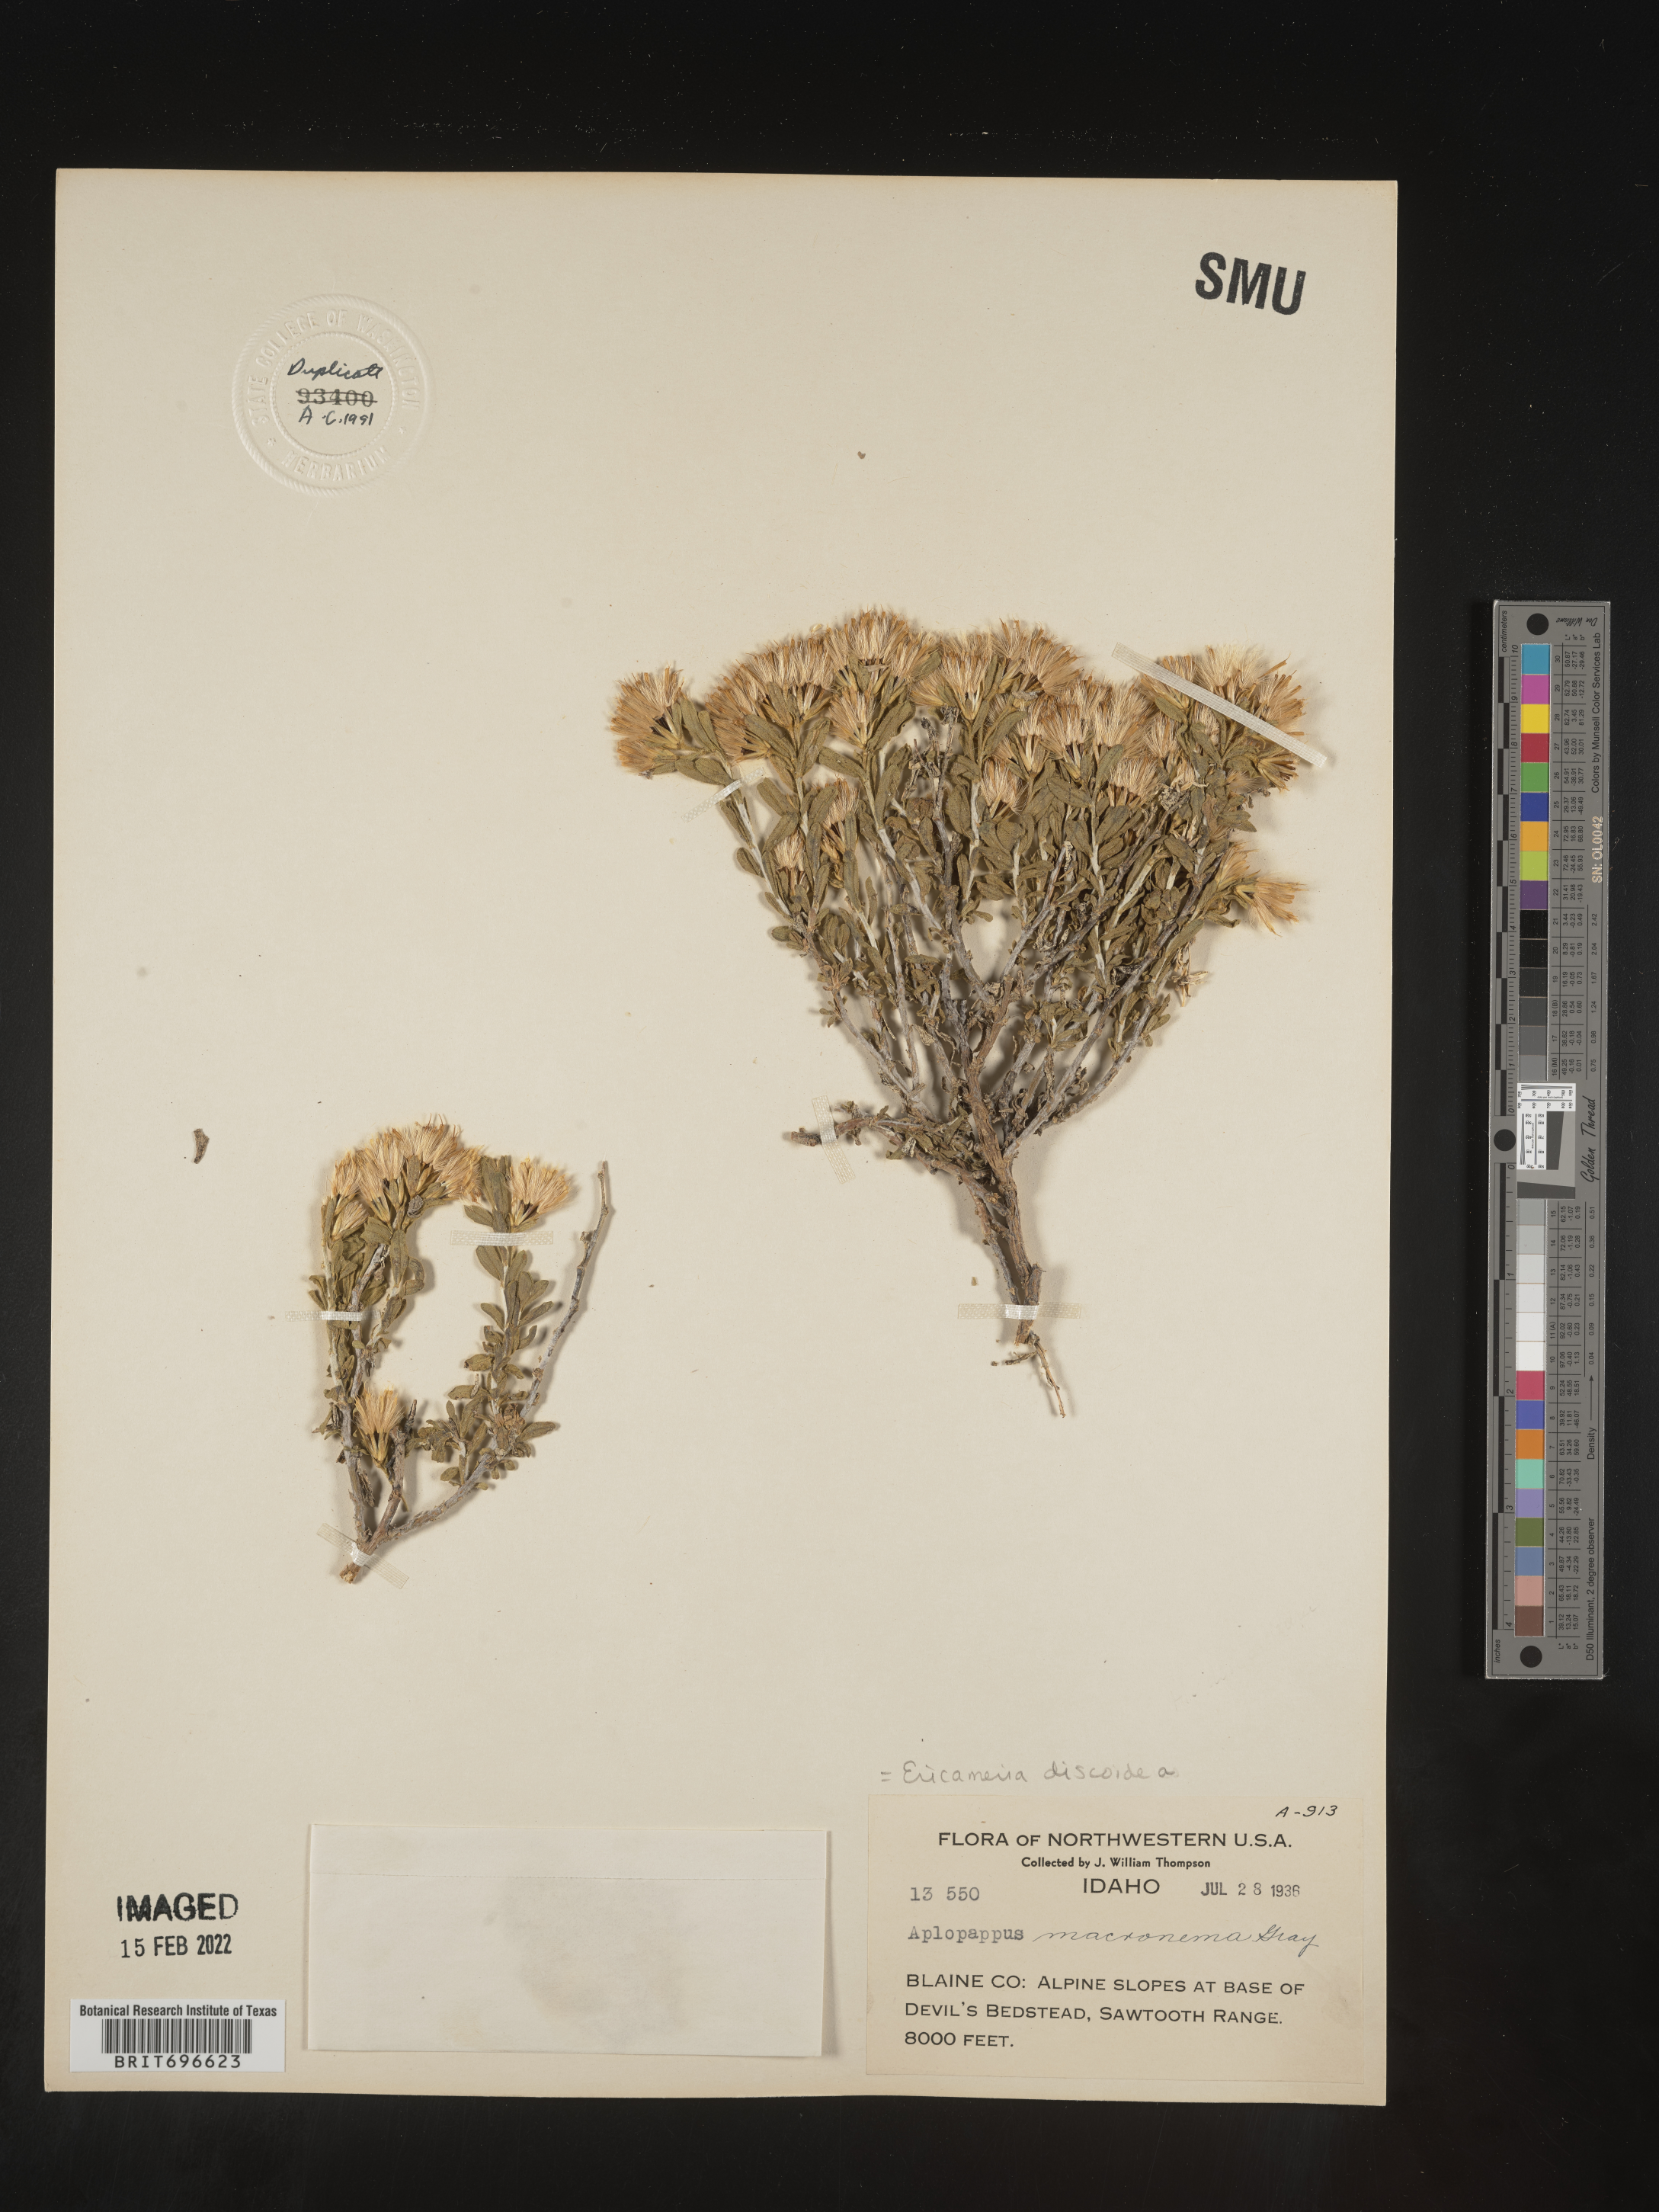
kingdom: Plantae
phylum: Tracheophyta
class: Magnoliopsida
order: Asterales
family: Asteraceae
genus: Ericameria
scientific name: Ericameria discoidea
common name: Sharp-scale goldenweed
